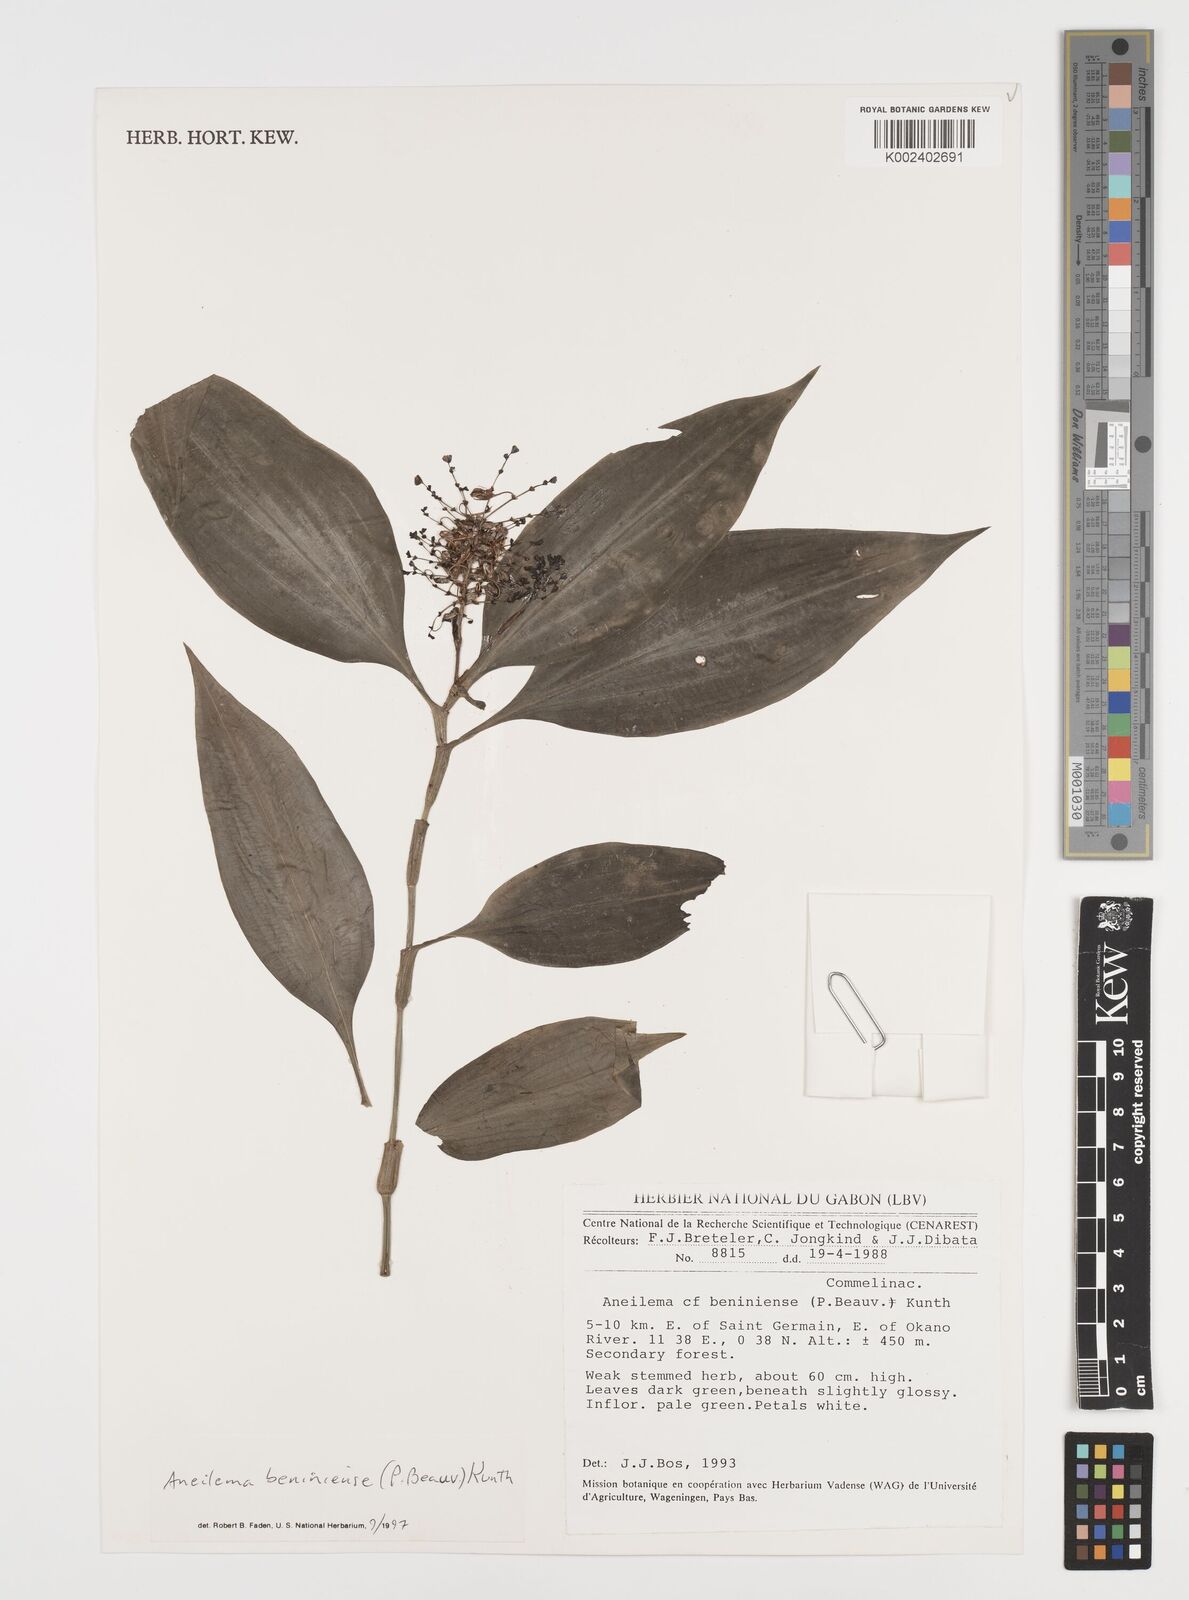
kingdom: Plantae
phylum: Tracheophyta
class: Liliopsida
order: Commelinales
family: Commelinaceae
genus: Aneilema
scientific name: Aneilema beniniense
